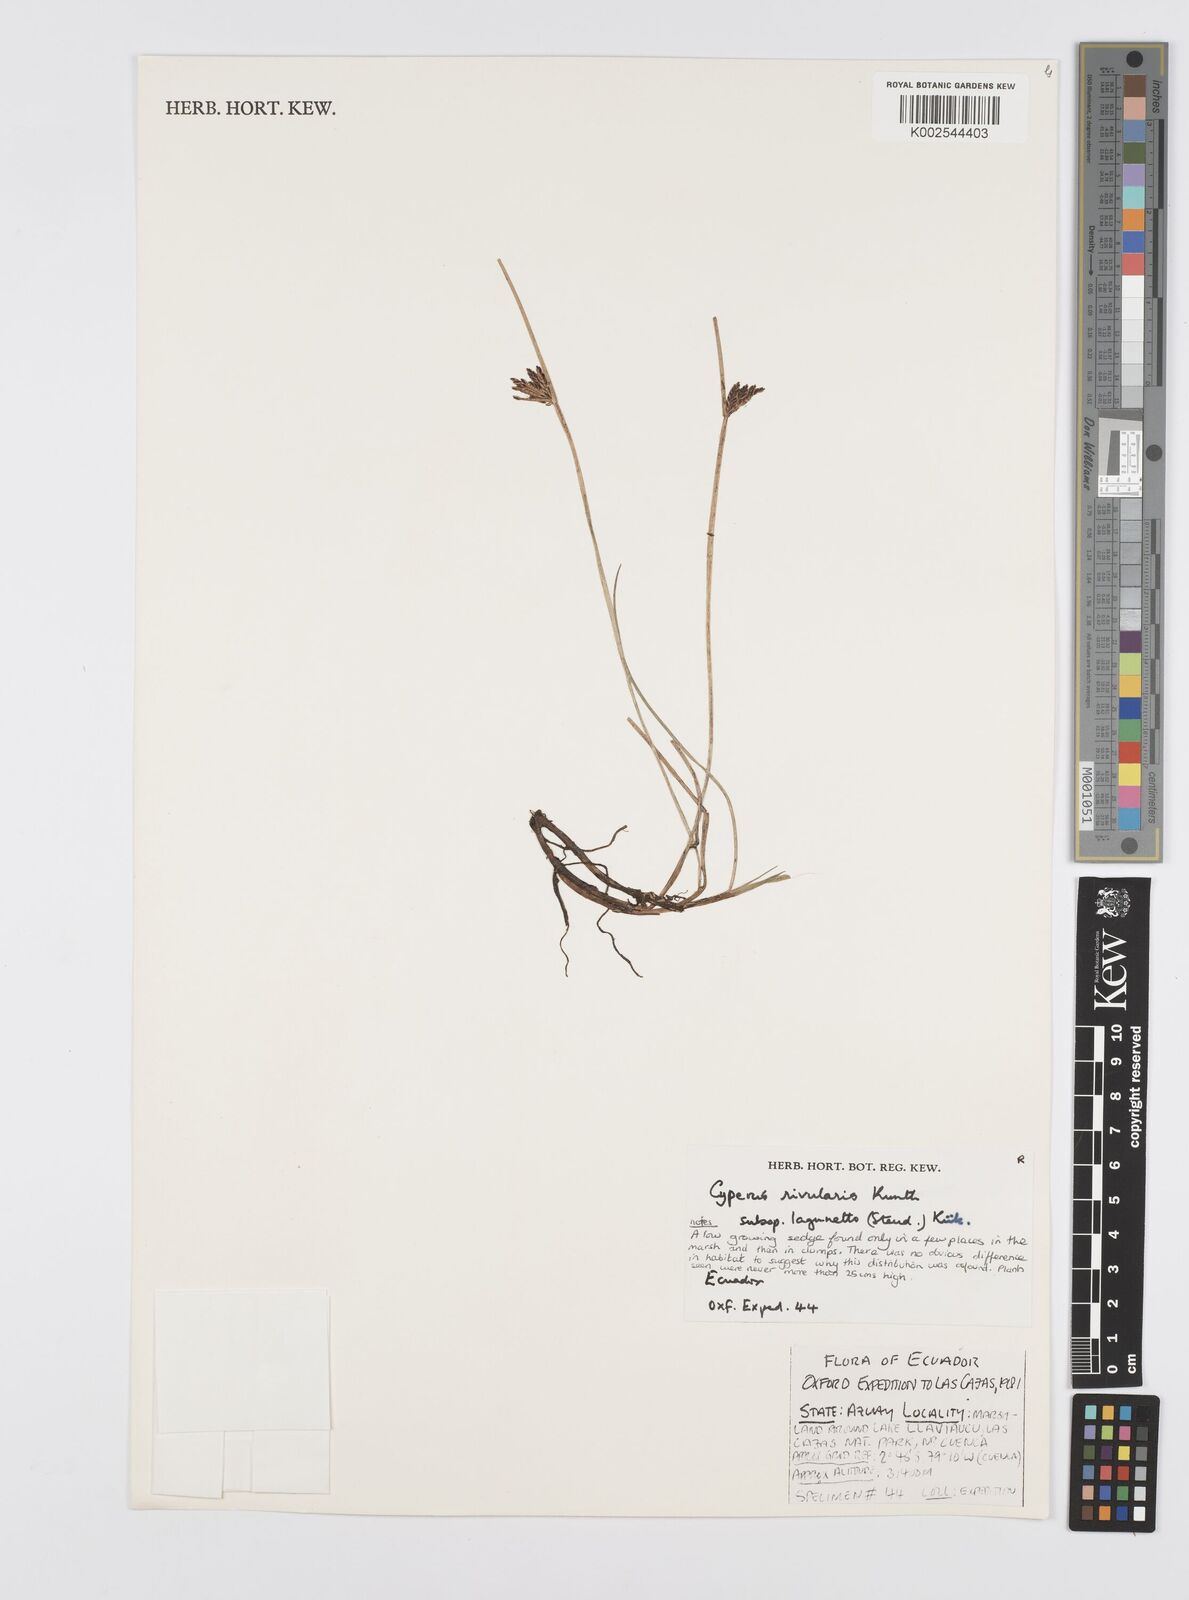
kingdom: Plantae
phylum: Tracheophyta
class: Liliopsida
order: Poales
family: Cyperaceae
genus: Cyperus
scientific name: Cyperus bipartitus
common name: Brook flatsedge
